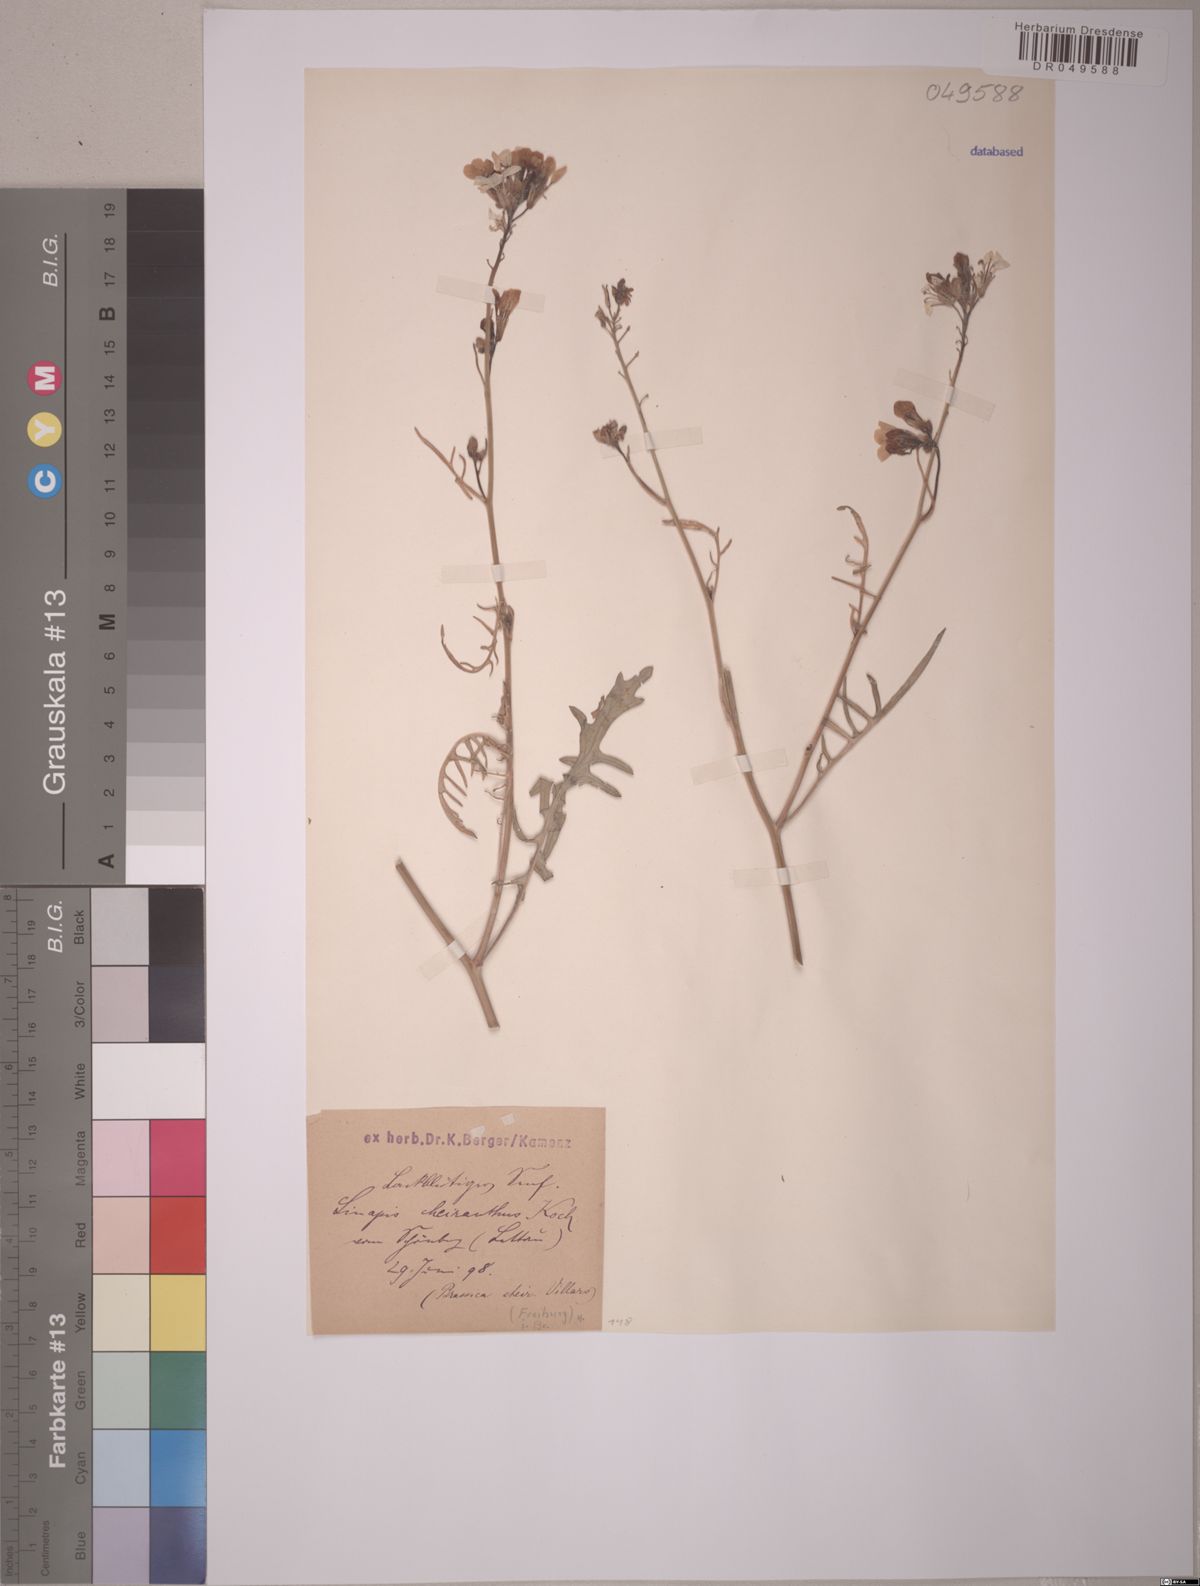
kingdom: Plantae
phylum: Tracheophyta
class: Magnoliopsida
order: Brassicales
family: Brassicaceae
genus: Coincya
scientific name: Coincya monensis
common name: Star-mustard
